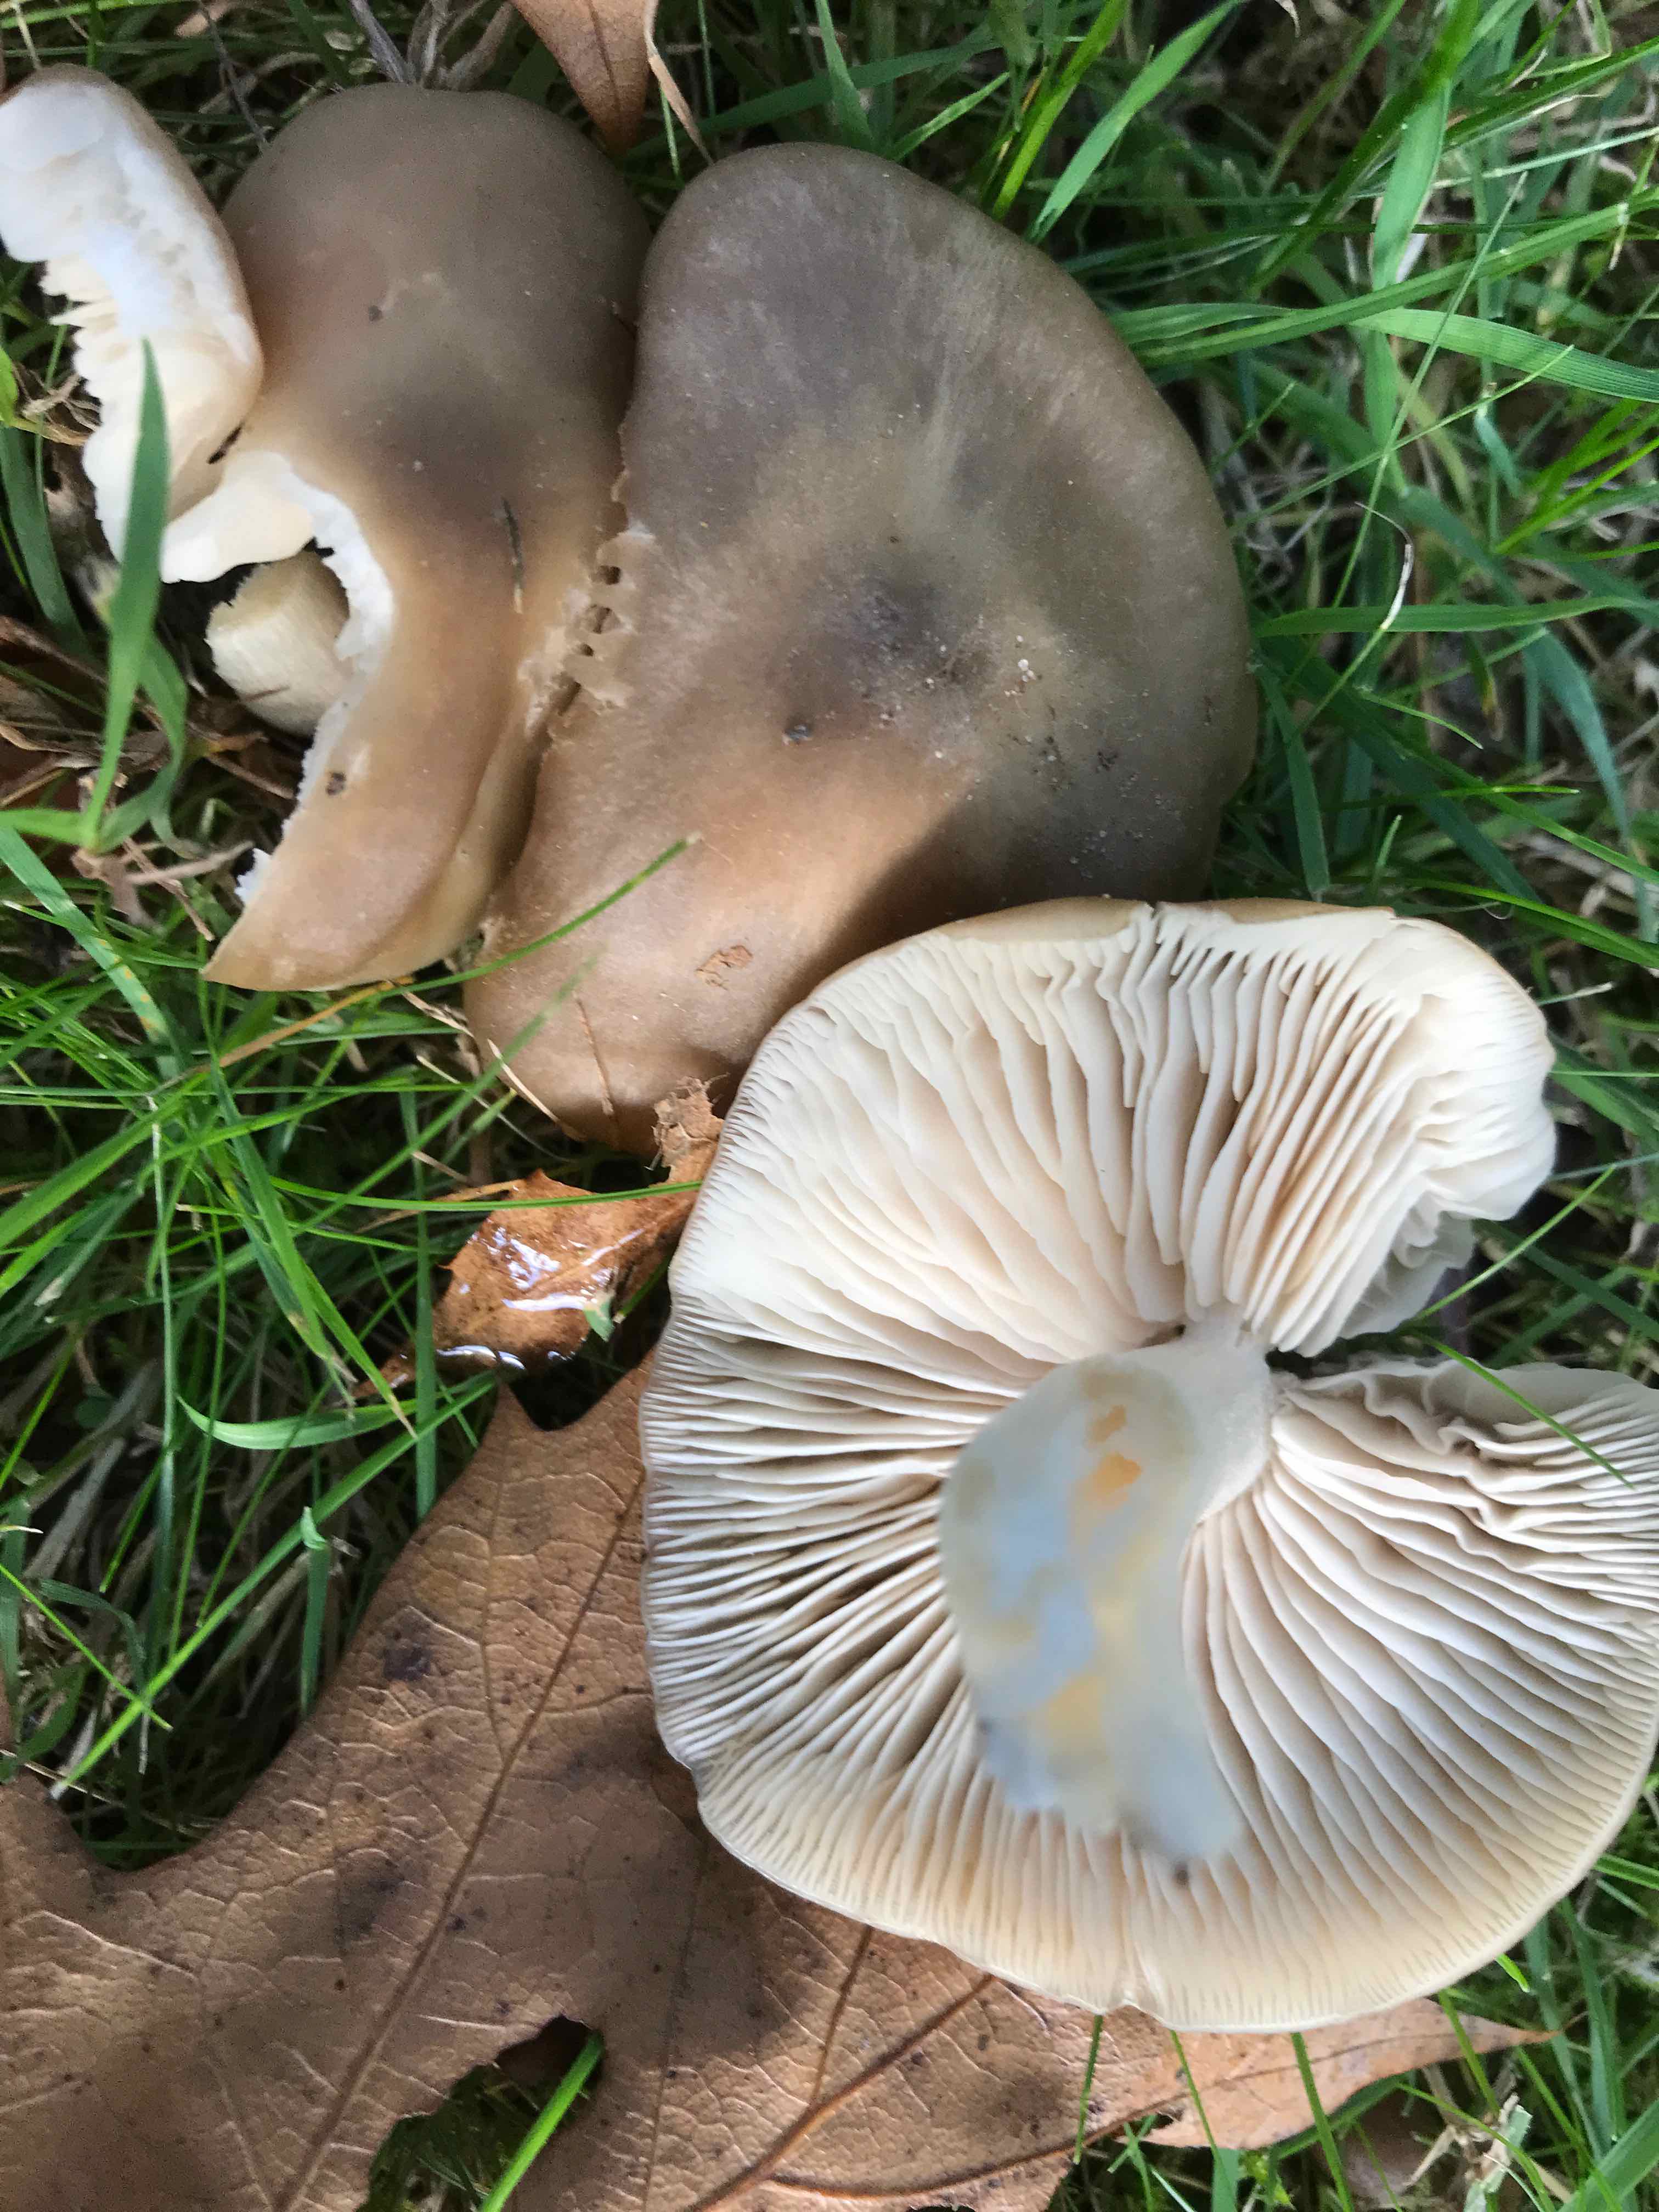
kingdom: Fungi
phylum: Basidiomycota
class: Agaricomycetes
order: Agaricales
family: Entolomataceae
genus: Entoloma
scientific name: Entoloma lividoalbum
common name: lysstokket rødblad
